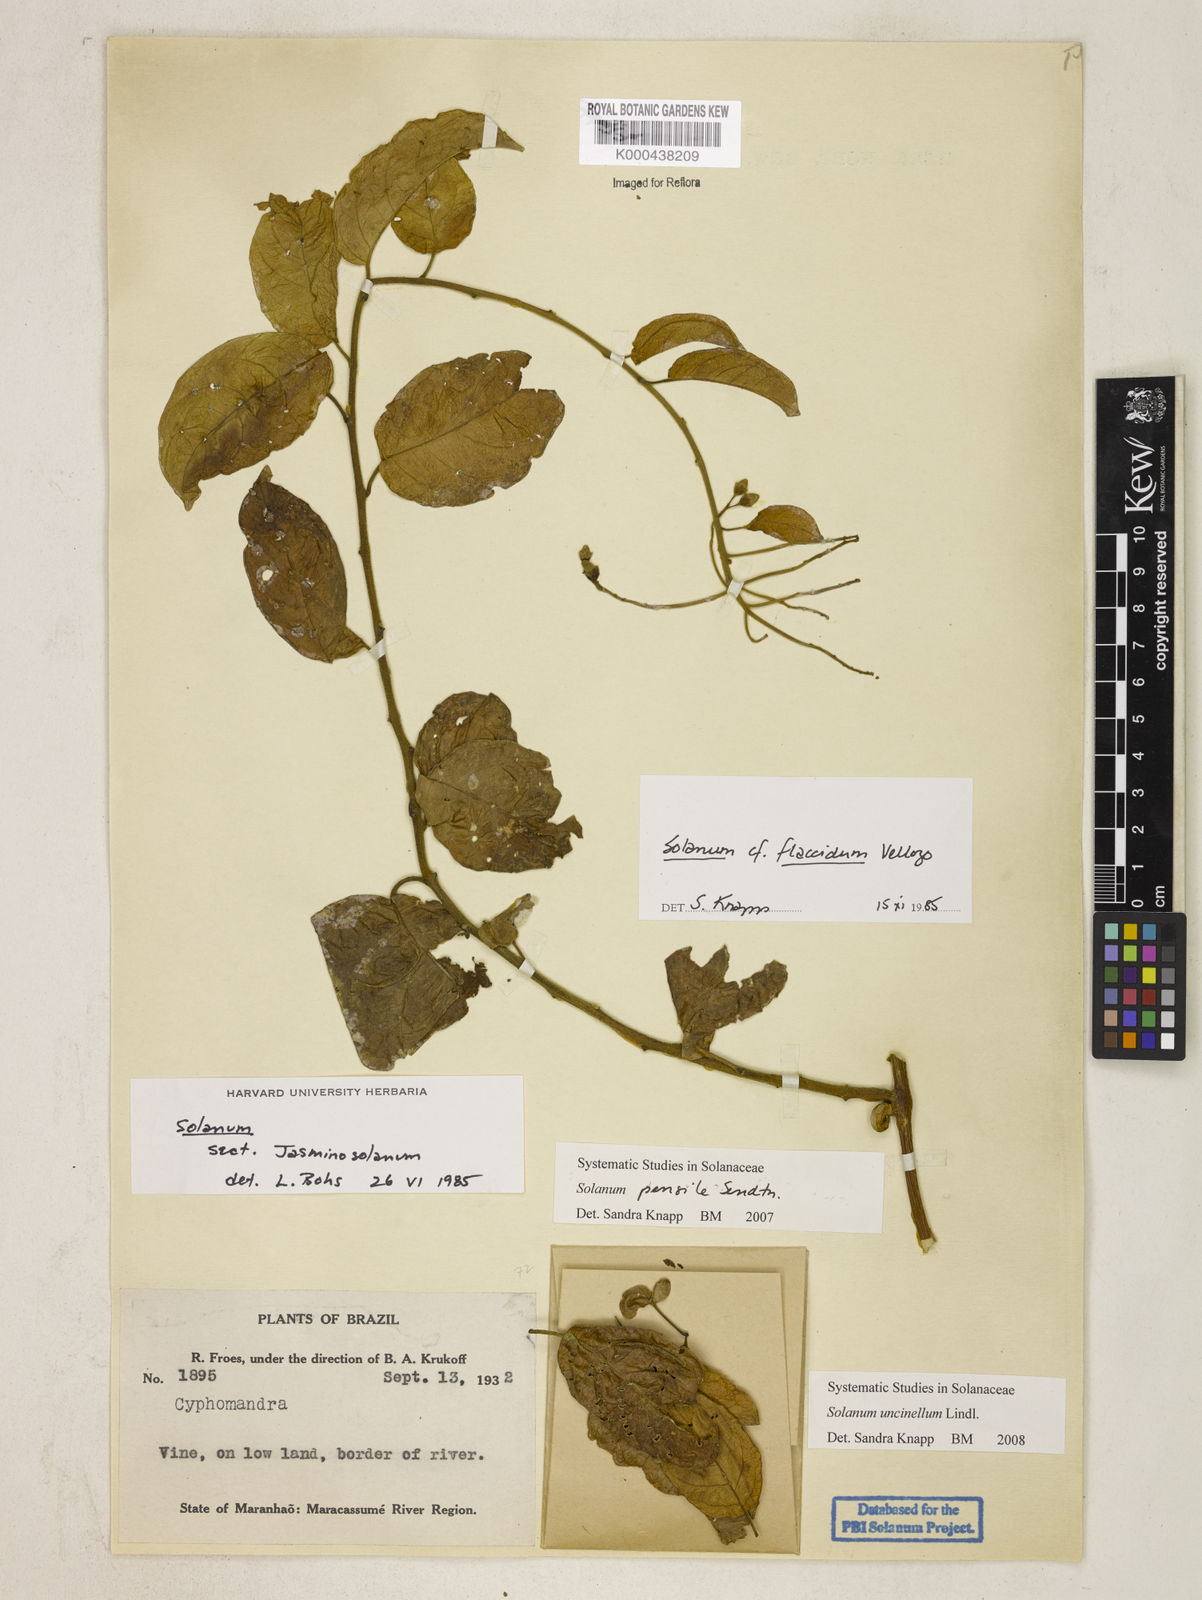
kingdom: Plantae
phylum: Tracheophyta
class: Magnoliopsida
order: Solanales
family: Solanaceae
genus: Solanum
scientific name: Solanum uncinellum
